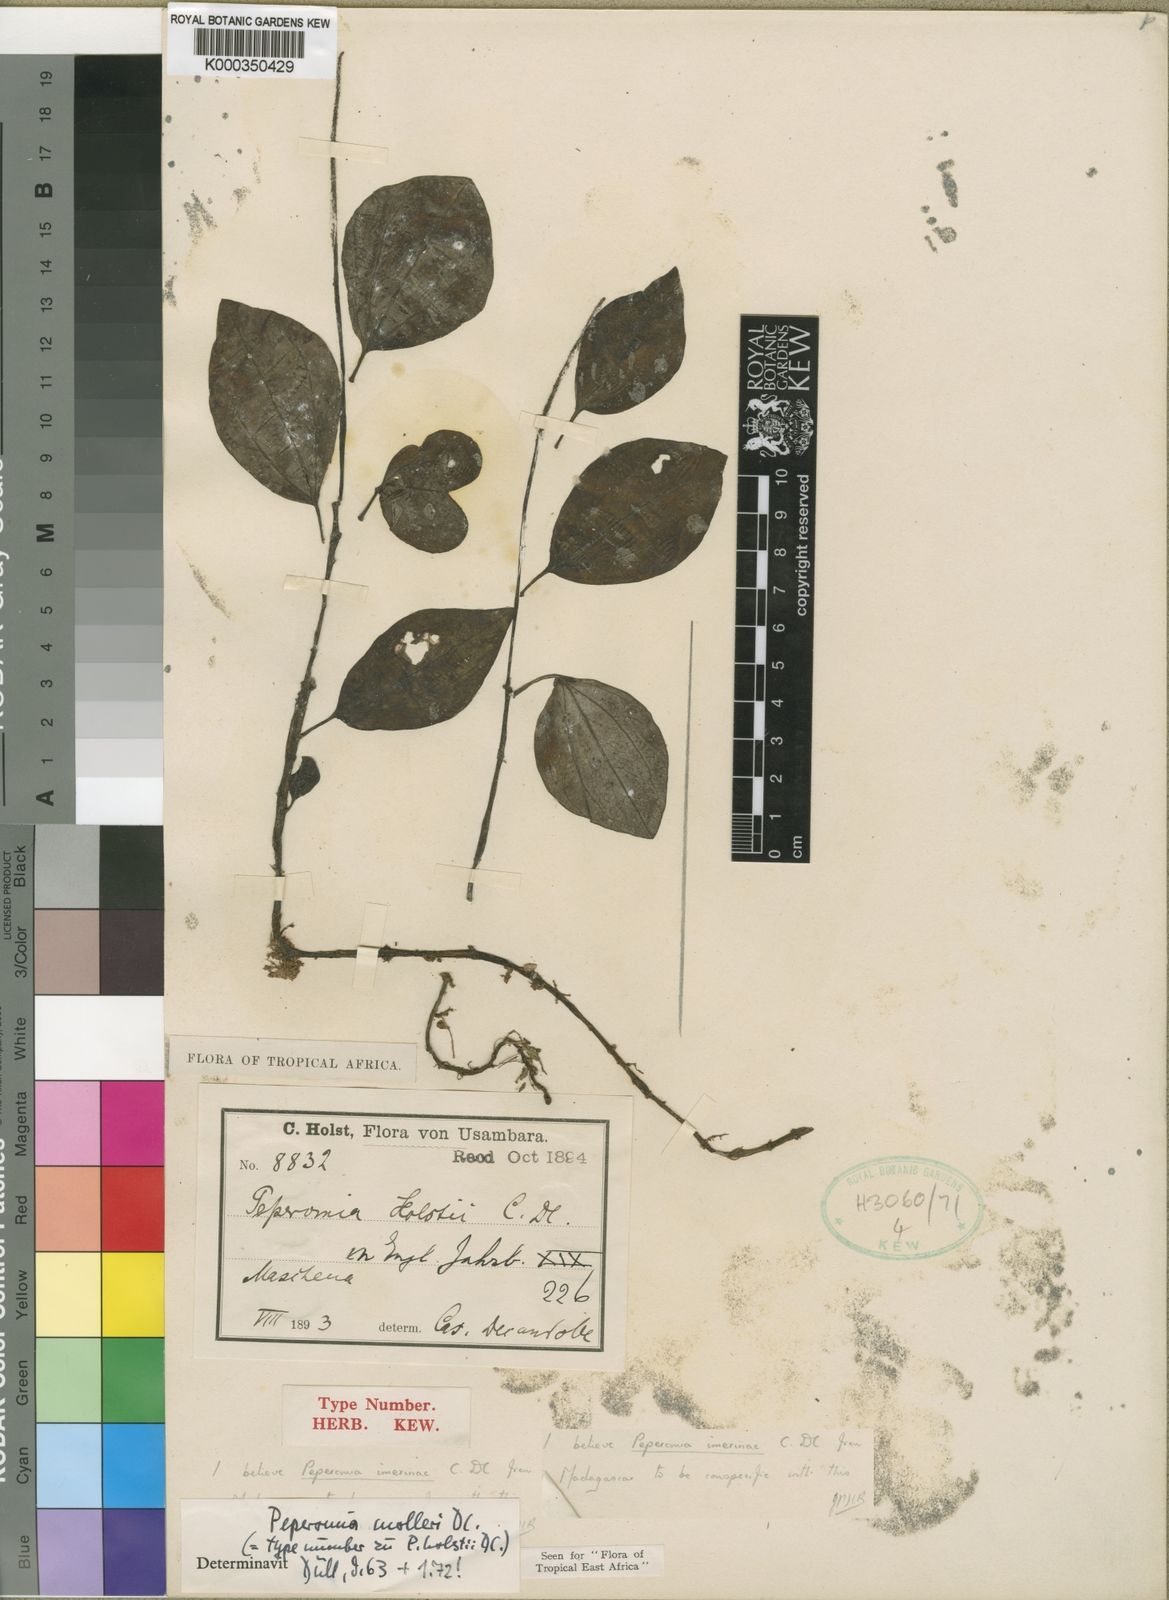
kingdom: Plantae
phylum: Tracheophyta
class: Magnoliopsida
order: Piperales
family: Piperaceae
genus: Peperomia
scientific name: Peperomia molleri
